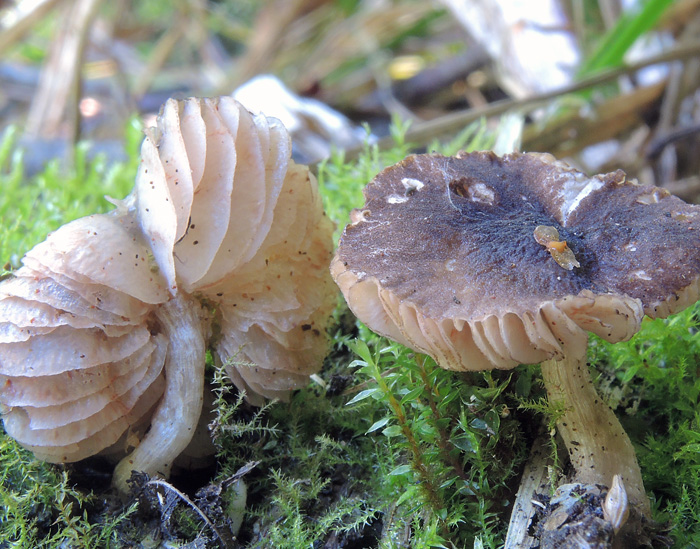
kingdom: Fungi
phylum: Basidiomycota
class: Agaricomycetes
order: Agaricales
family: Pluteaceae
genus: Pluteus
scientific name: Pluteus podospileus
